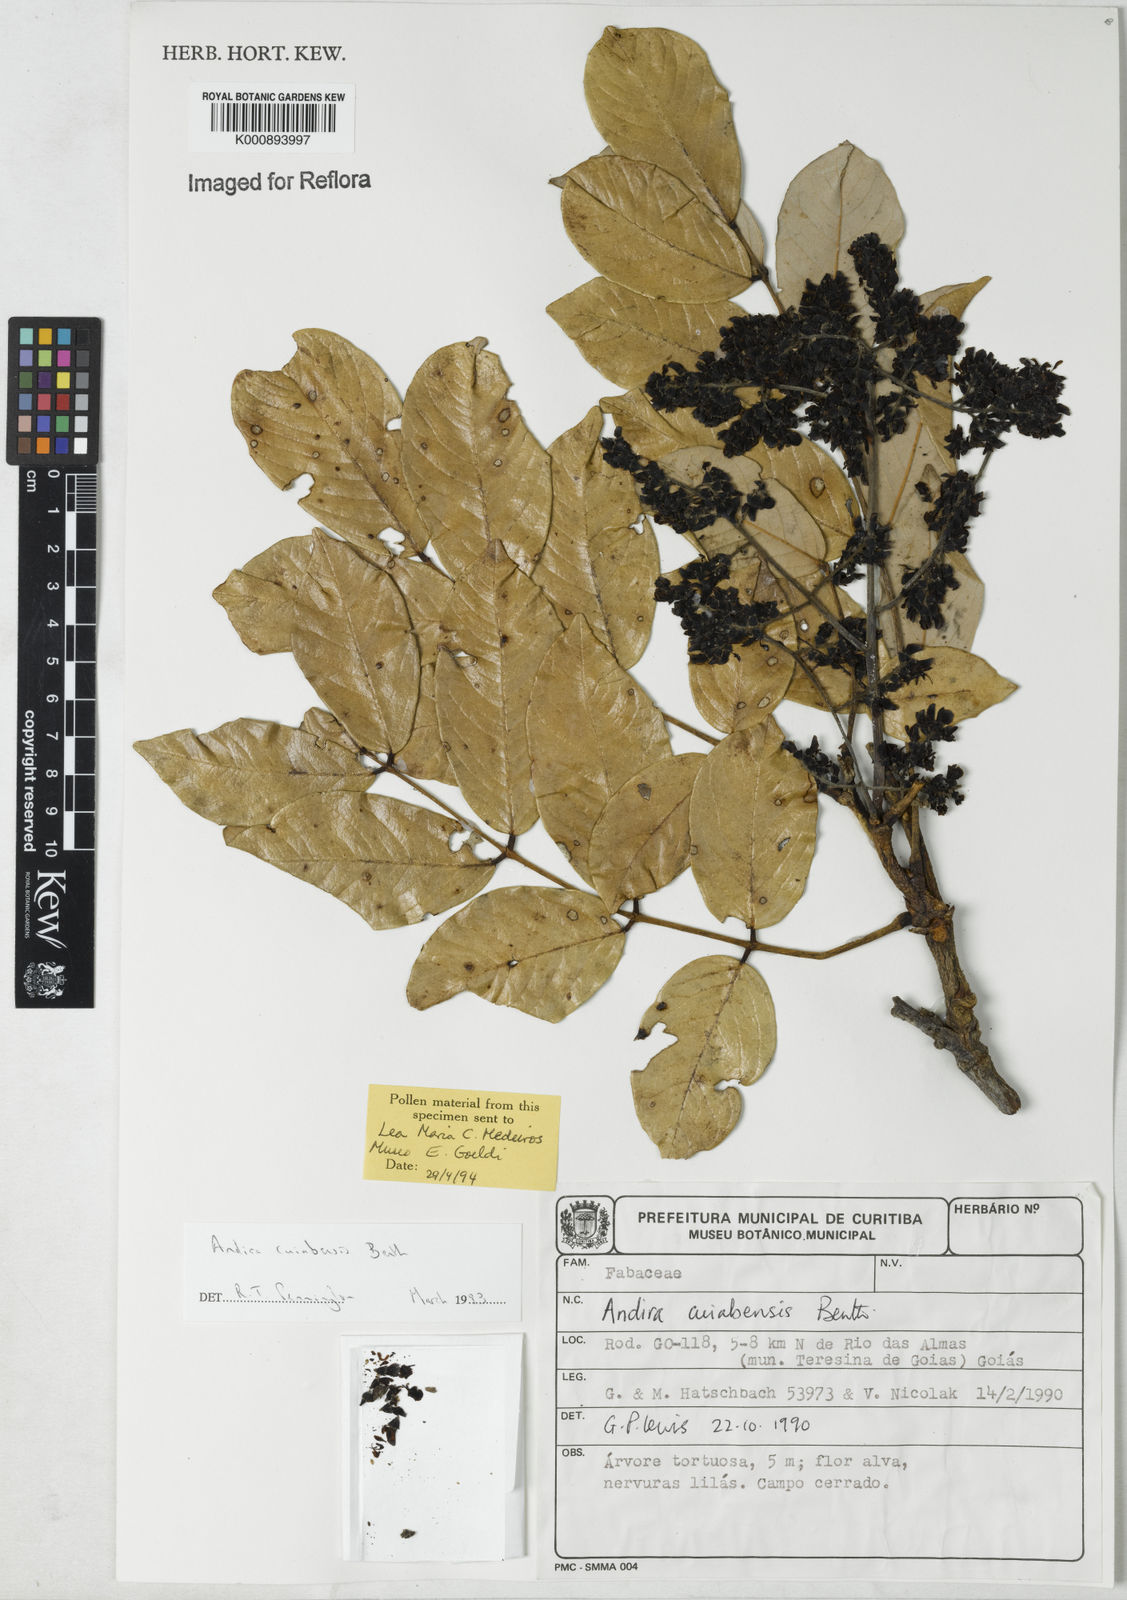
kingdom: Plantae
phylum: Tracheophyta
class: Magnoliopsida
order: Fabales
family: Fabaceae
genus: Andira
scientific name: Andira cujabensis
